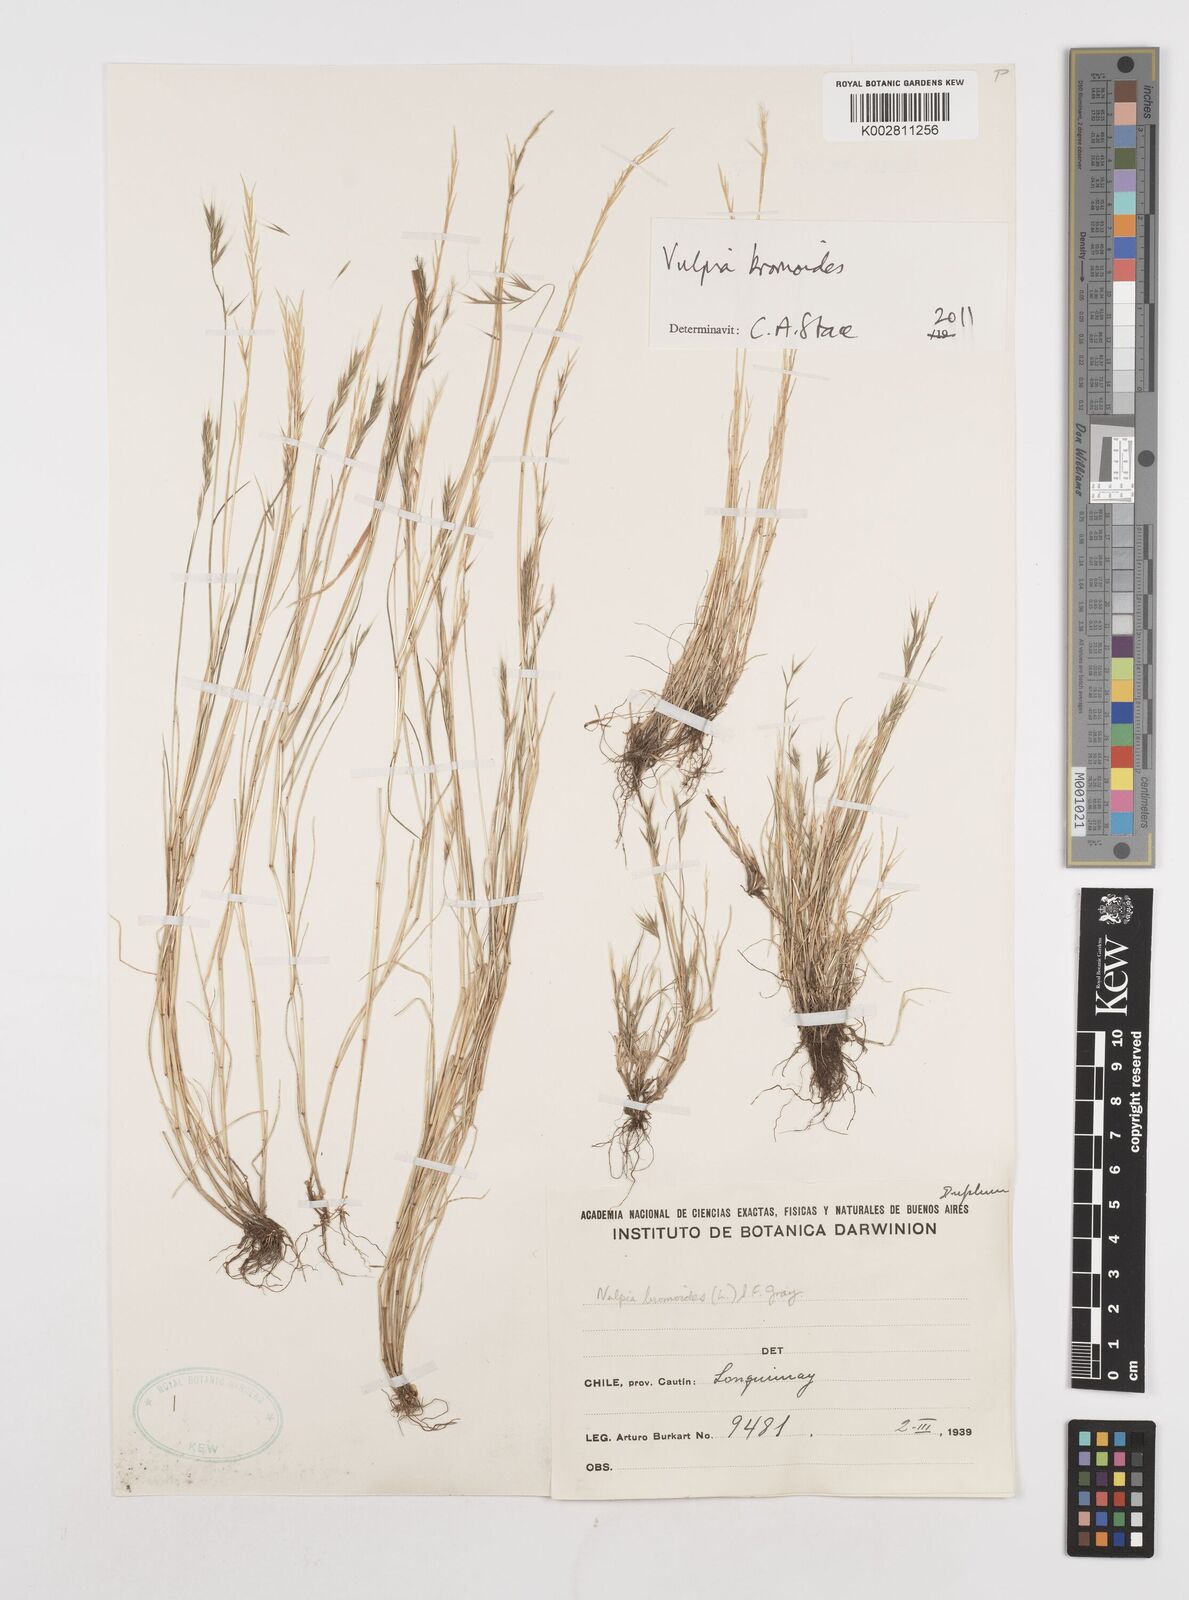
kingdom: Plantae
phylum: Tracheophyta
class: Liliopsida
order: Poales
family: Poaceae
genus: Festuca
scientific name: Festuca bromoides
